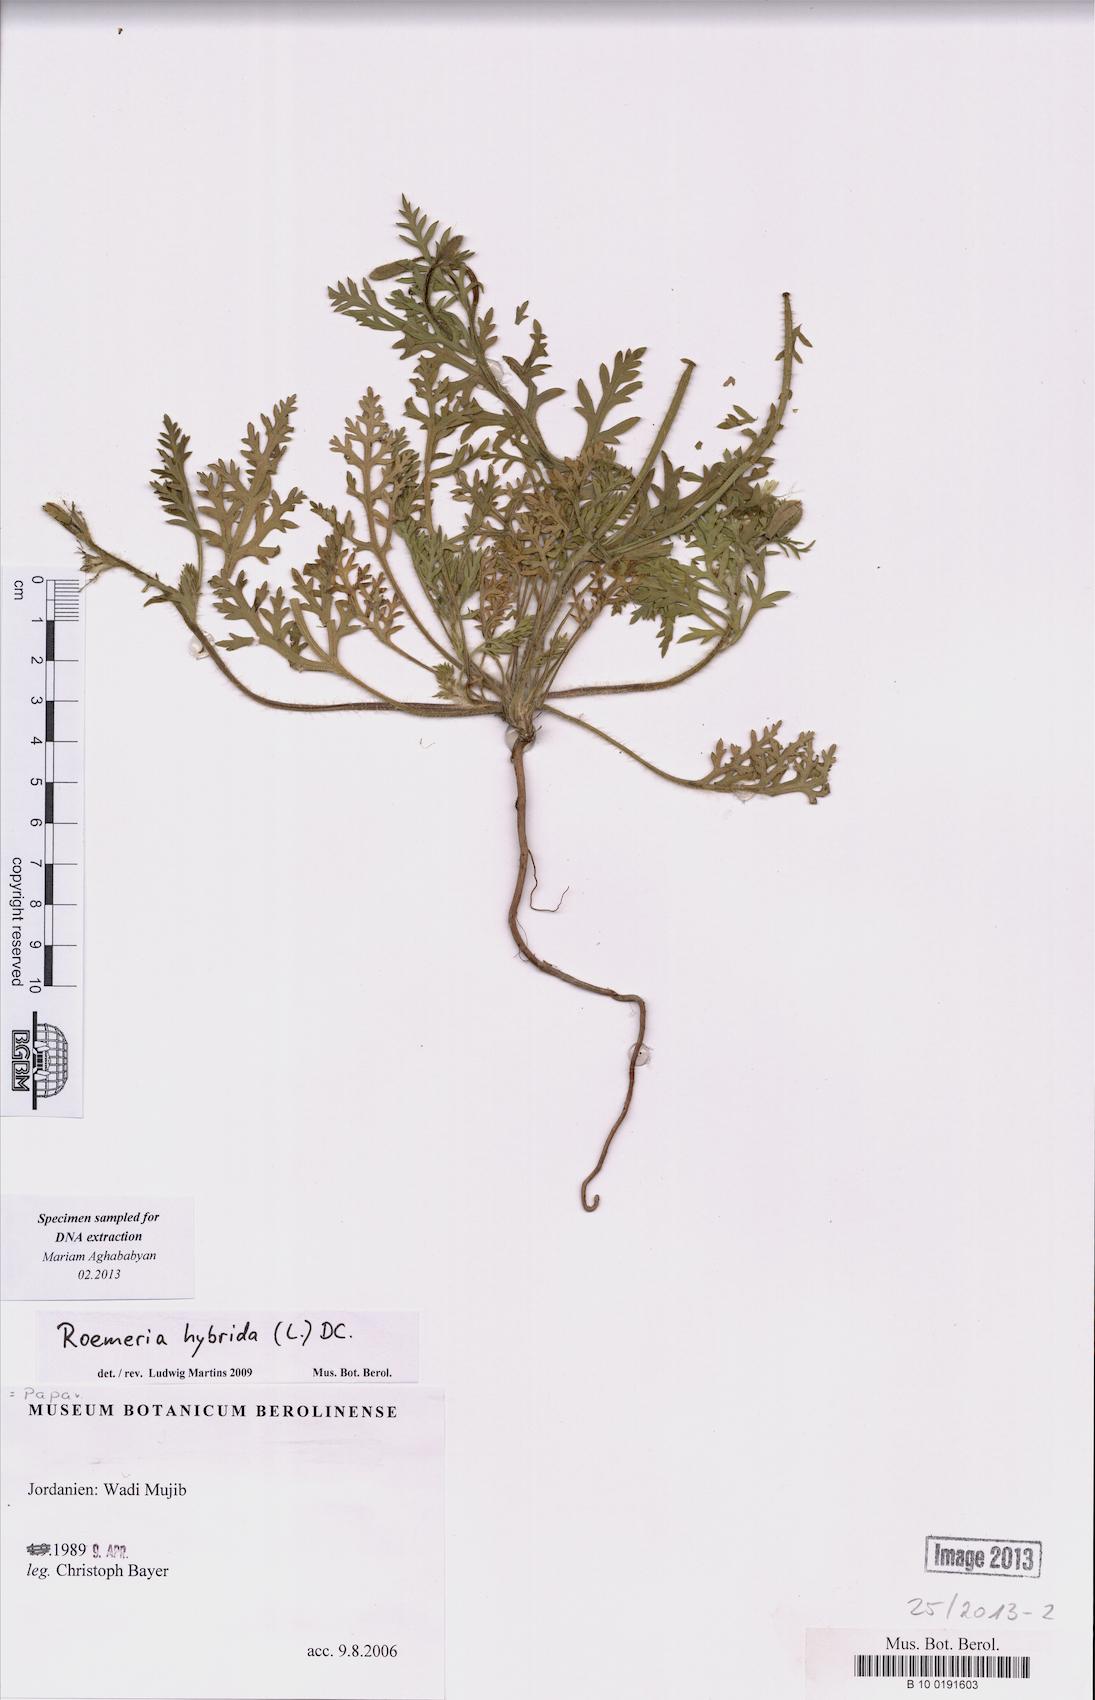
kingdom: Plantae
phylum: Tracheophyta
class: Magnoliopsida
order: Ranunculales
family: Papaveraceae
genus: Roemeria
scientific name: Roemeria hybrida
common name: Violet horned-poppy
